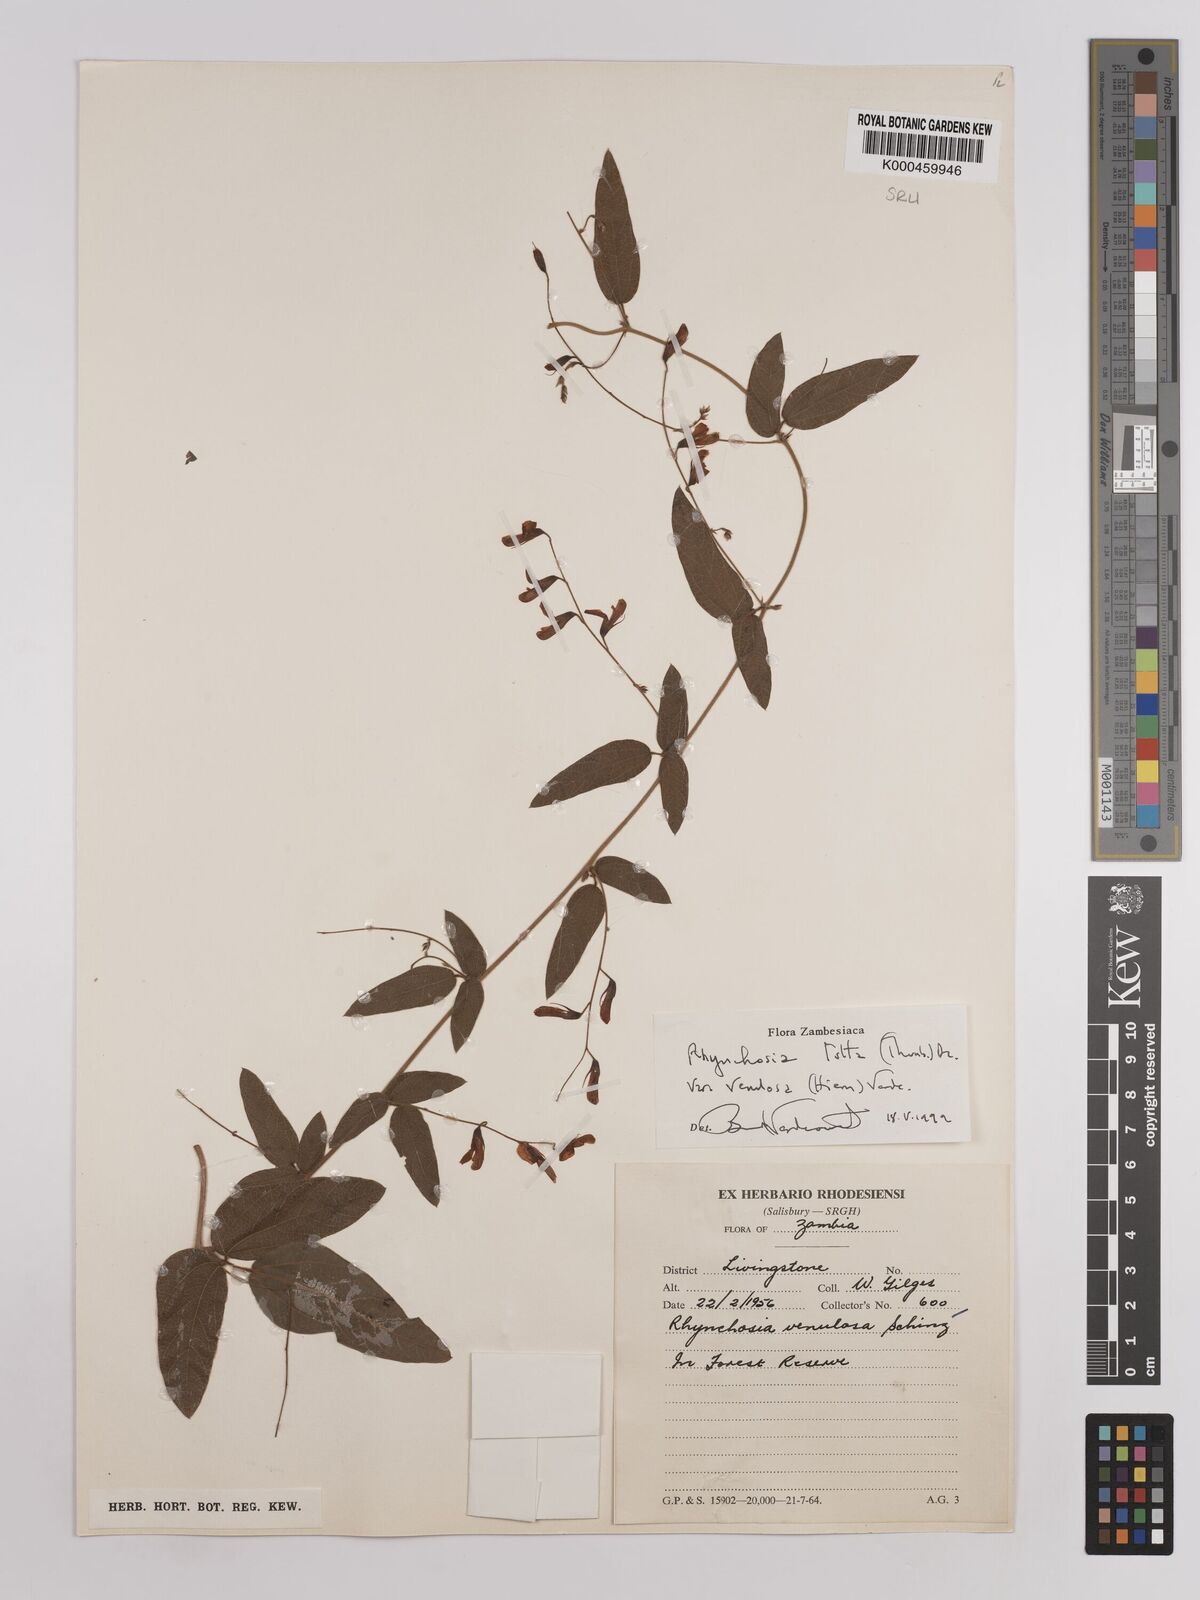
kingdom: Plantae
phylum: Tracheophyta
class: Magnoliopsida
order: Fabales
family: Fabaceae
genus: Rhynchosia
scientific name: Rhynchosia totta
